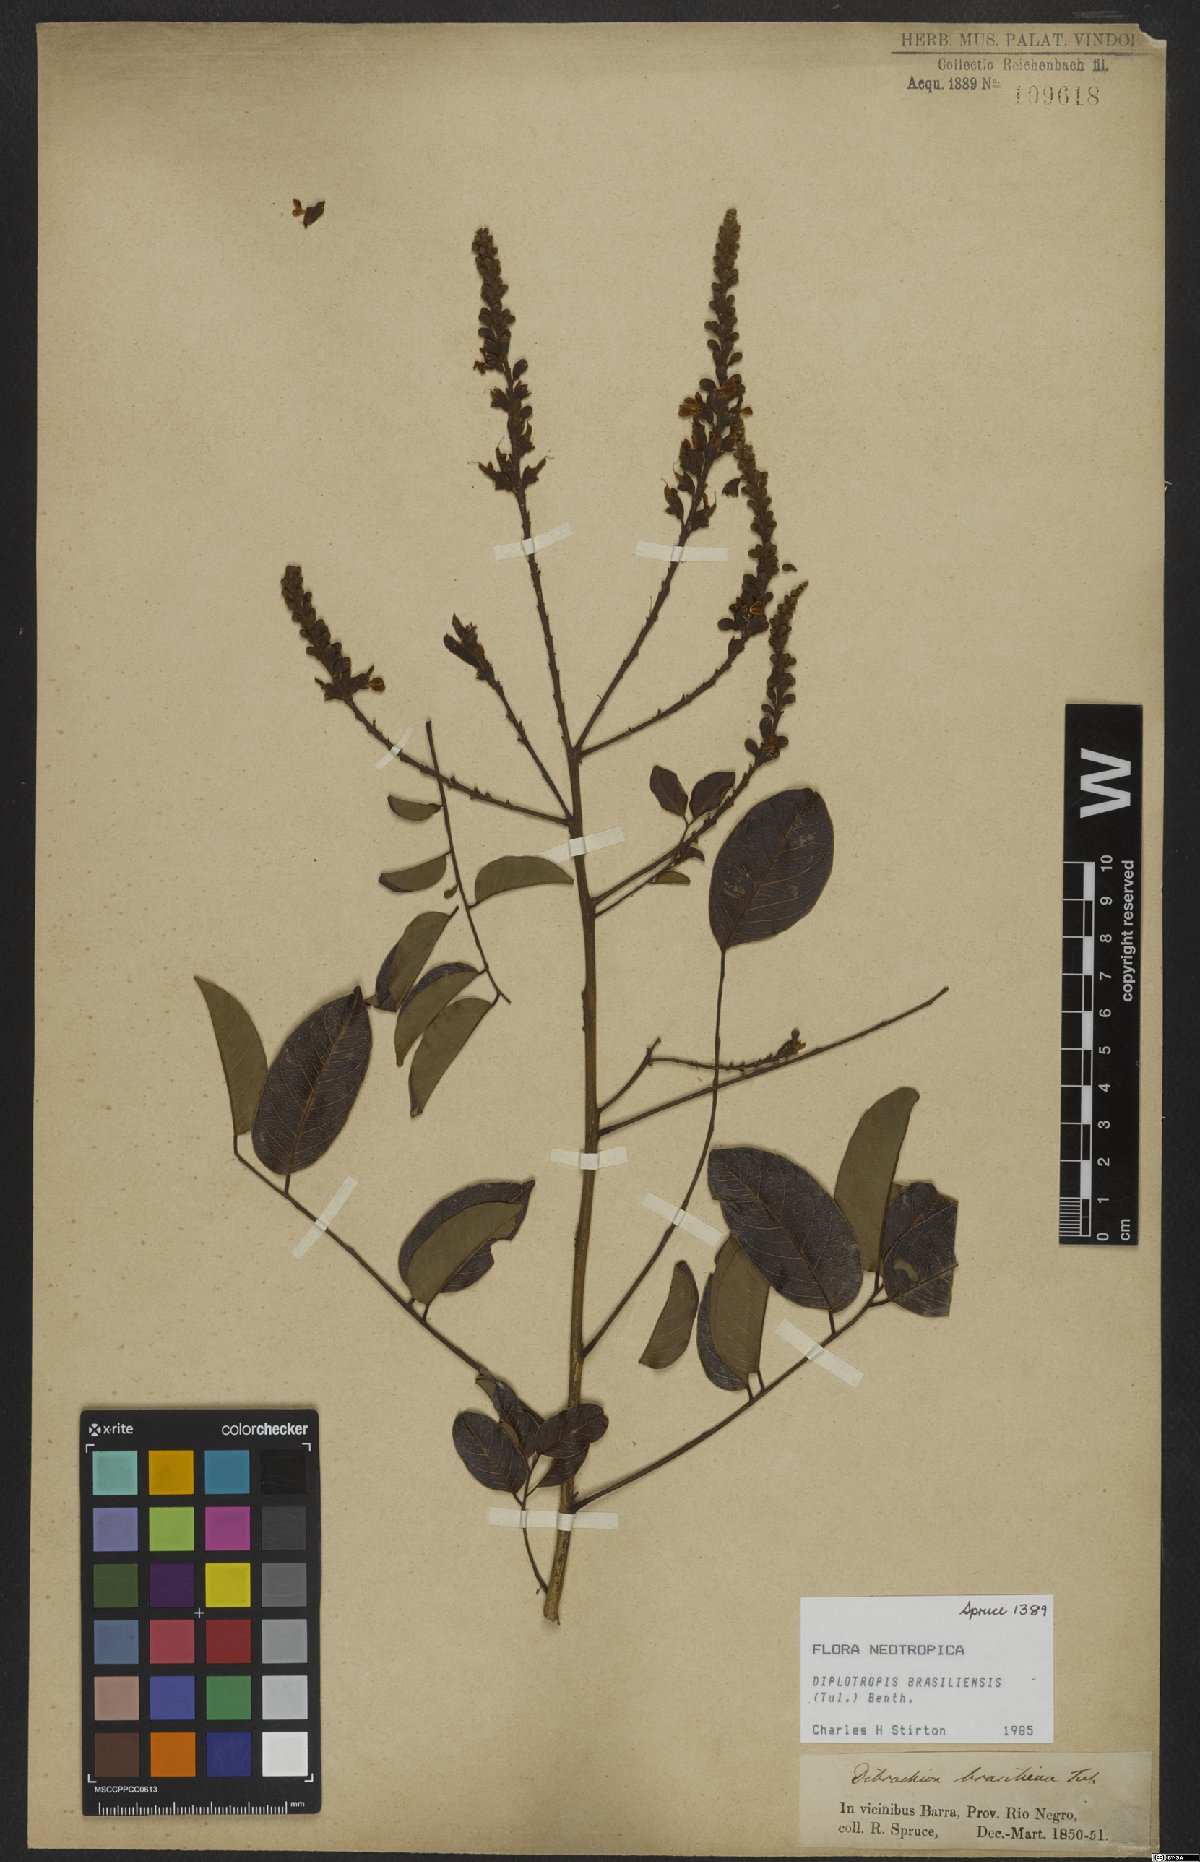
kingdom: Plantae
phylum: Tracheophyta
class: Magnoliopsida
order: Fabales
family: Fabaceae
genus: Diplotropis
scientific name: Diplotropis brasiliensis
